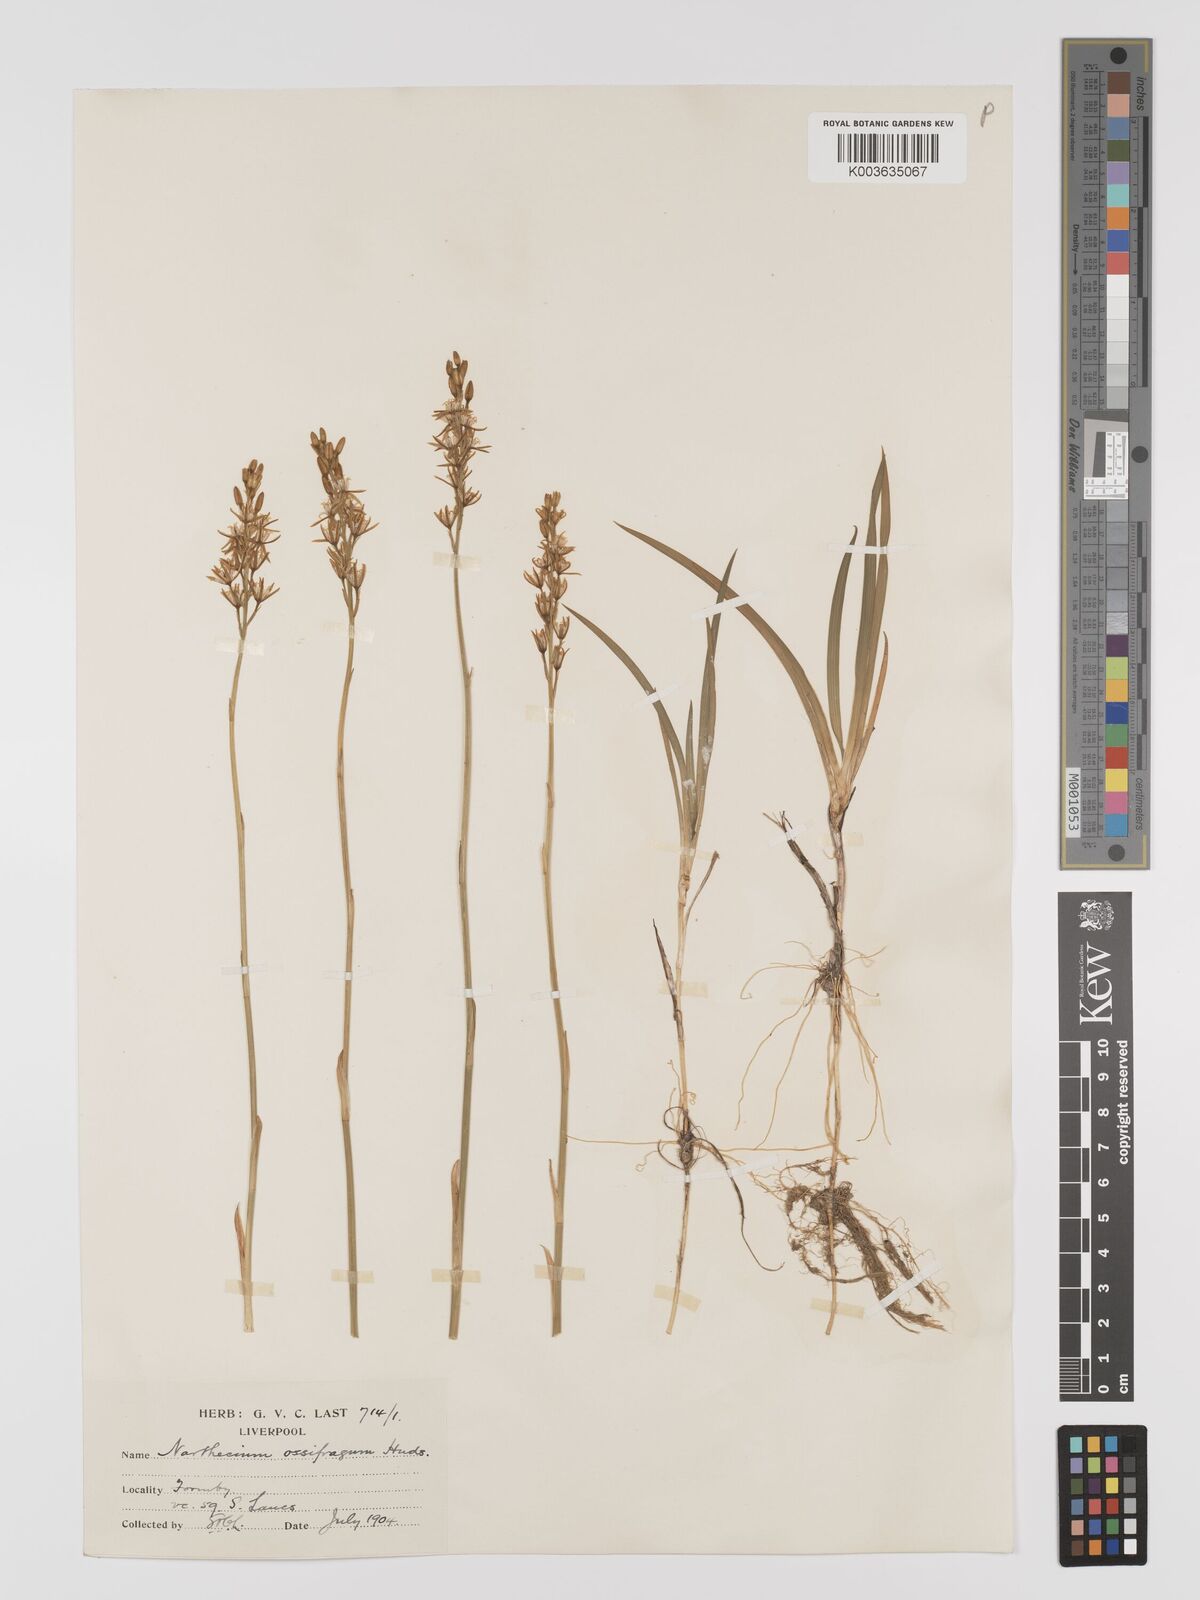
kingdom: Plantae
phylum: Tracheophyta
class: Liliopsida
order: Dioscoreales
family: Nartheciaceae
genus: Narthecium
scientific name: Narthecium ossifragum
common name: Bog asphodel
